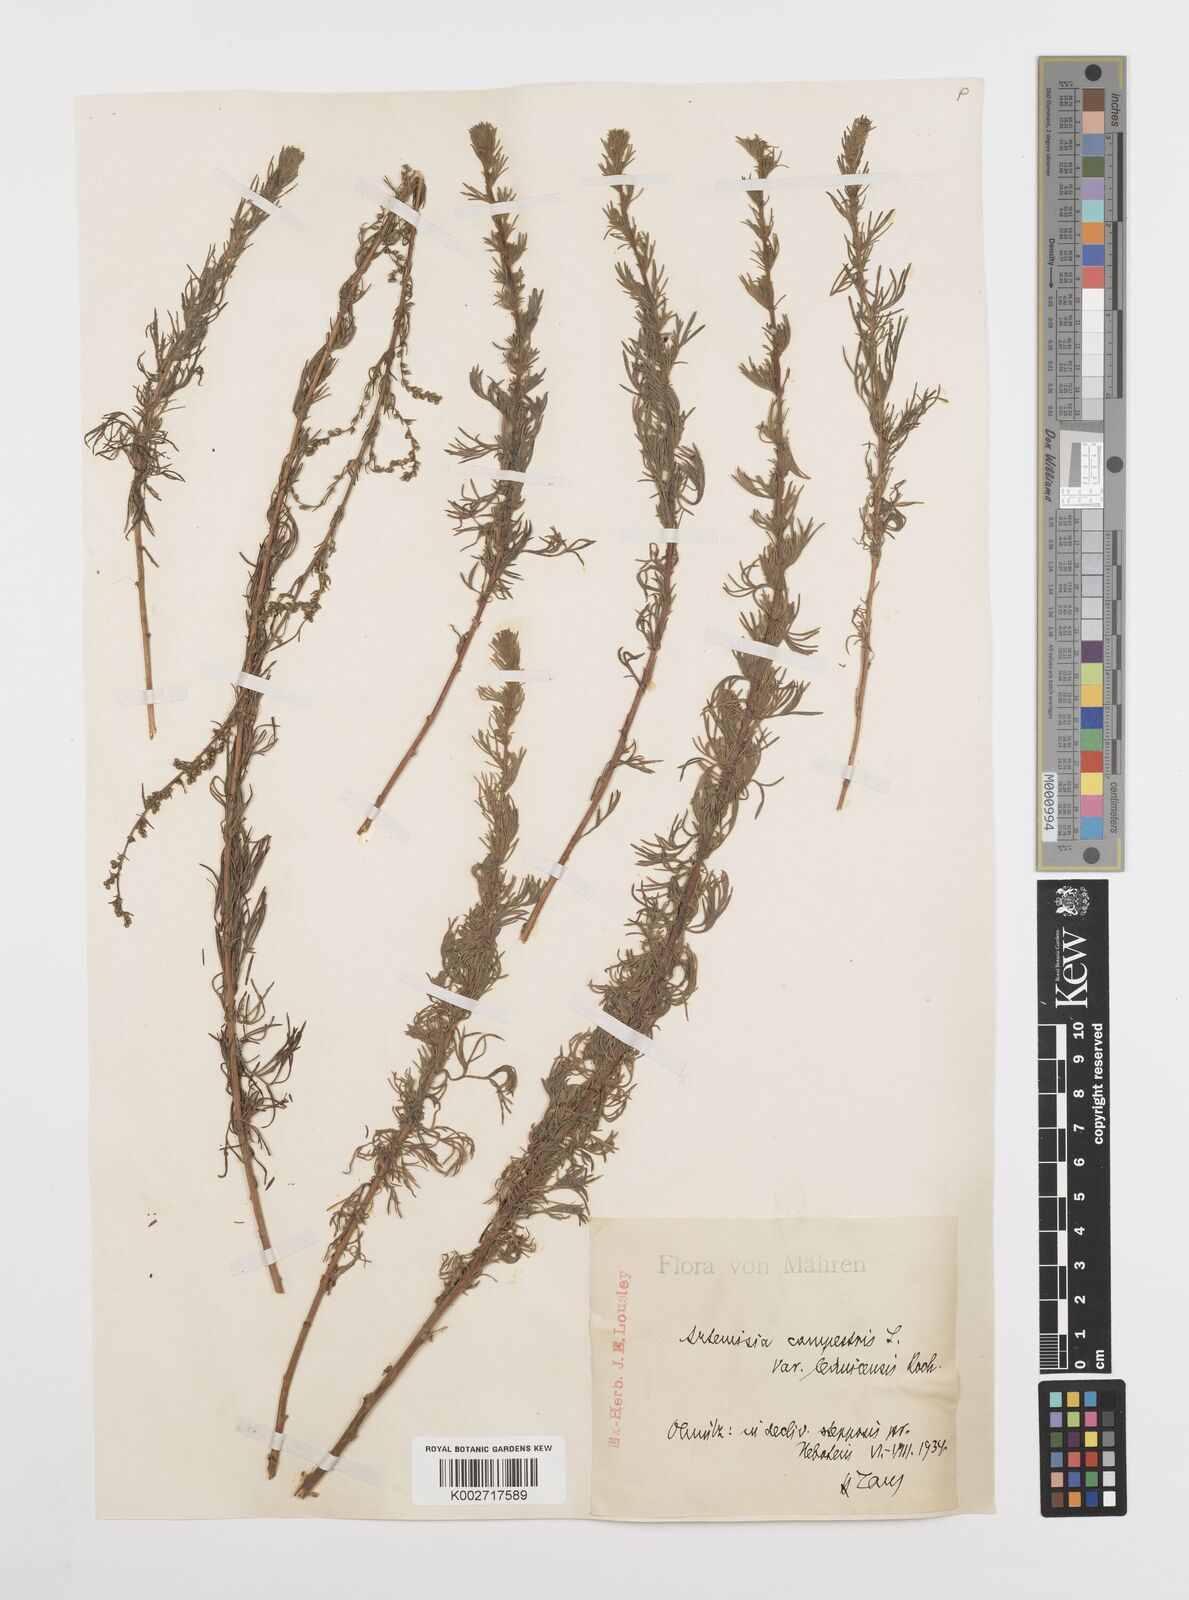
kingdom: Plantae
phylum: Tracheophyta
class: Magnoliopsida
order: Asterales
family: Asteraceae
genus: Artemisia
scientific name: Artemisia campestris
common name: Field wormwood
